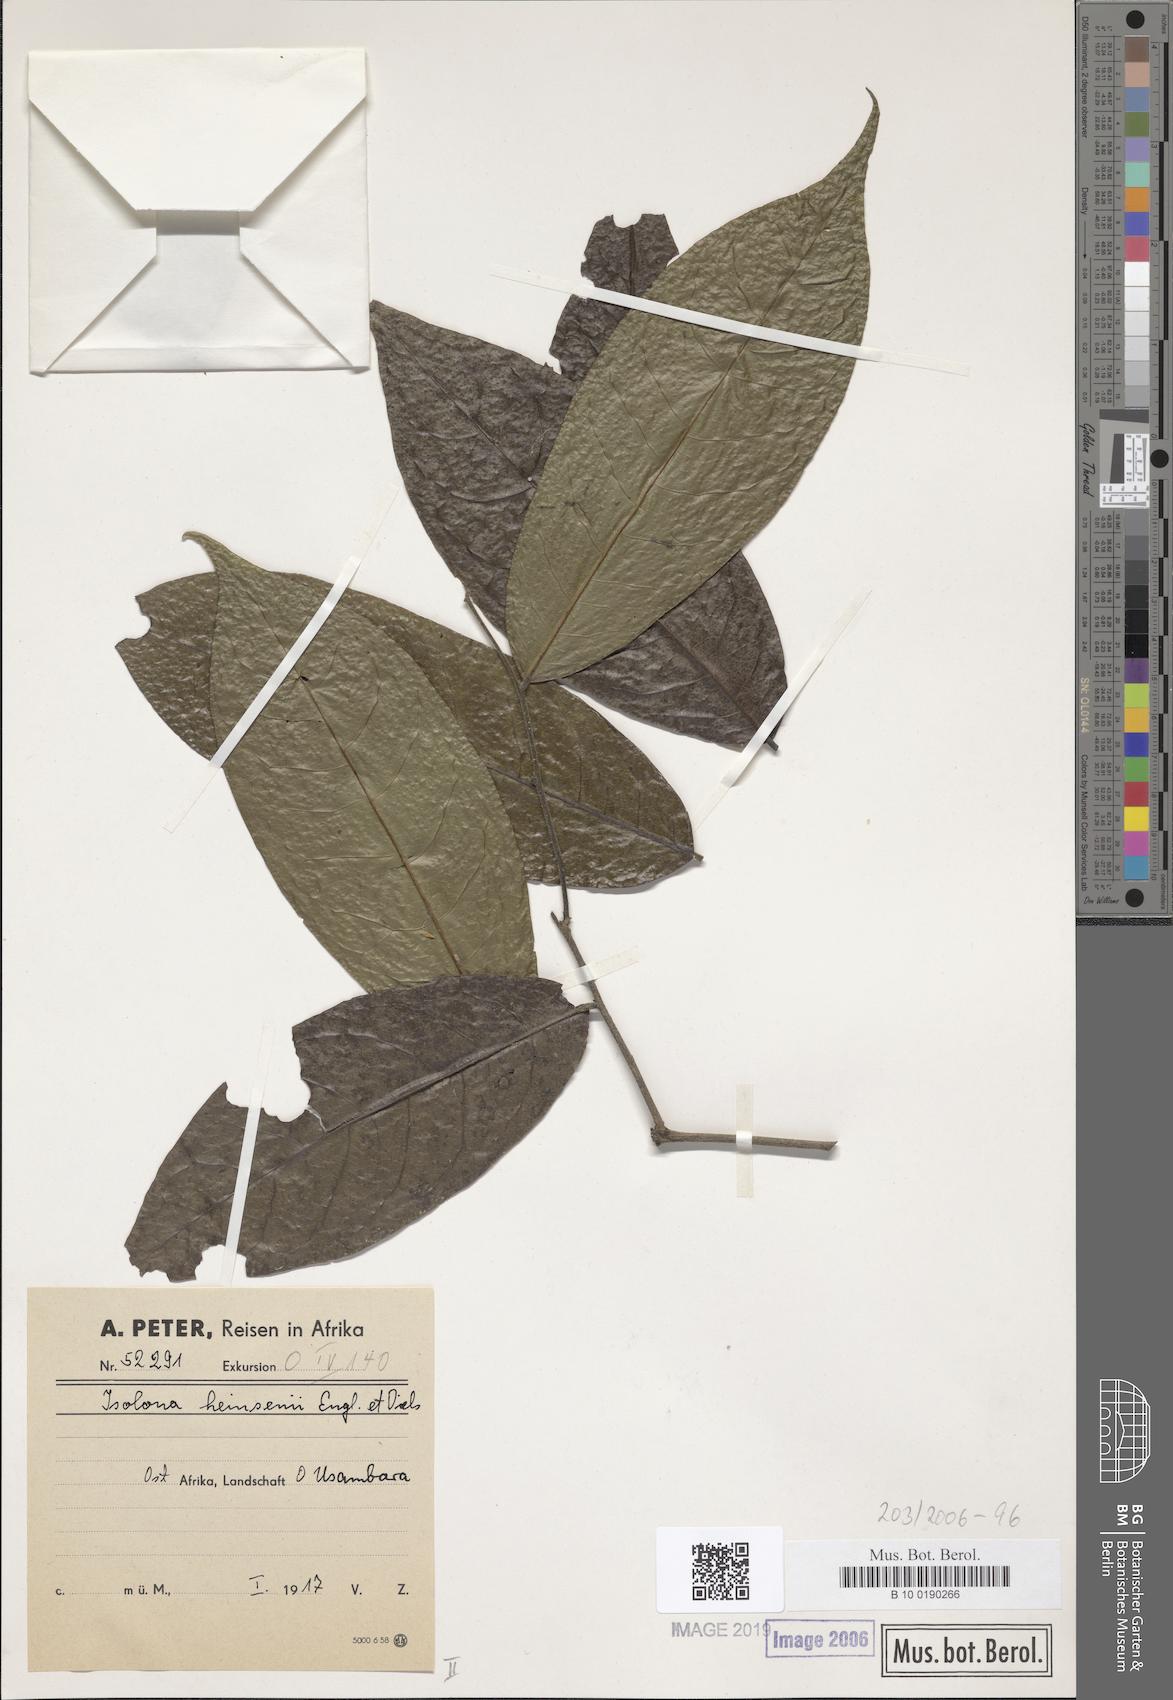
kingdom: Plantae
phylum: Tracheophyta
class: Magnoliopsida
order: Magnoliales
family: Annonaceae
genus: Isolona
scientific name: Isolona heinsenii
